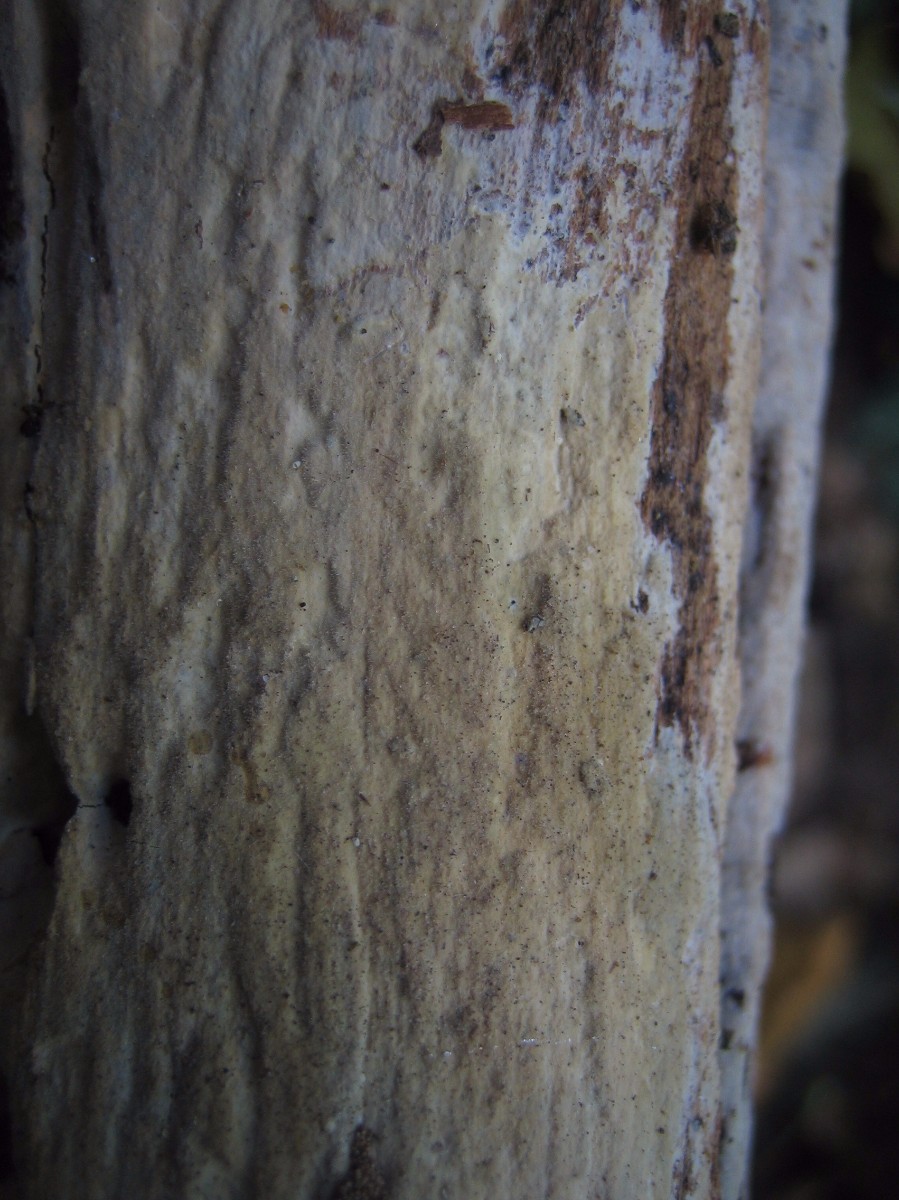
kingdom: Fungi
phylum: Basidiomycota
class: Agaricomycetes
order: Corticiales
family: Corticiaceae
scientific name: Corticiaceae
